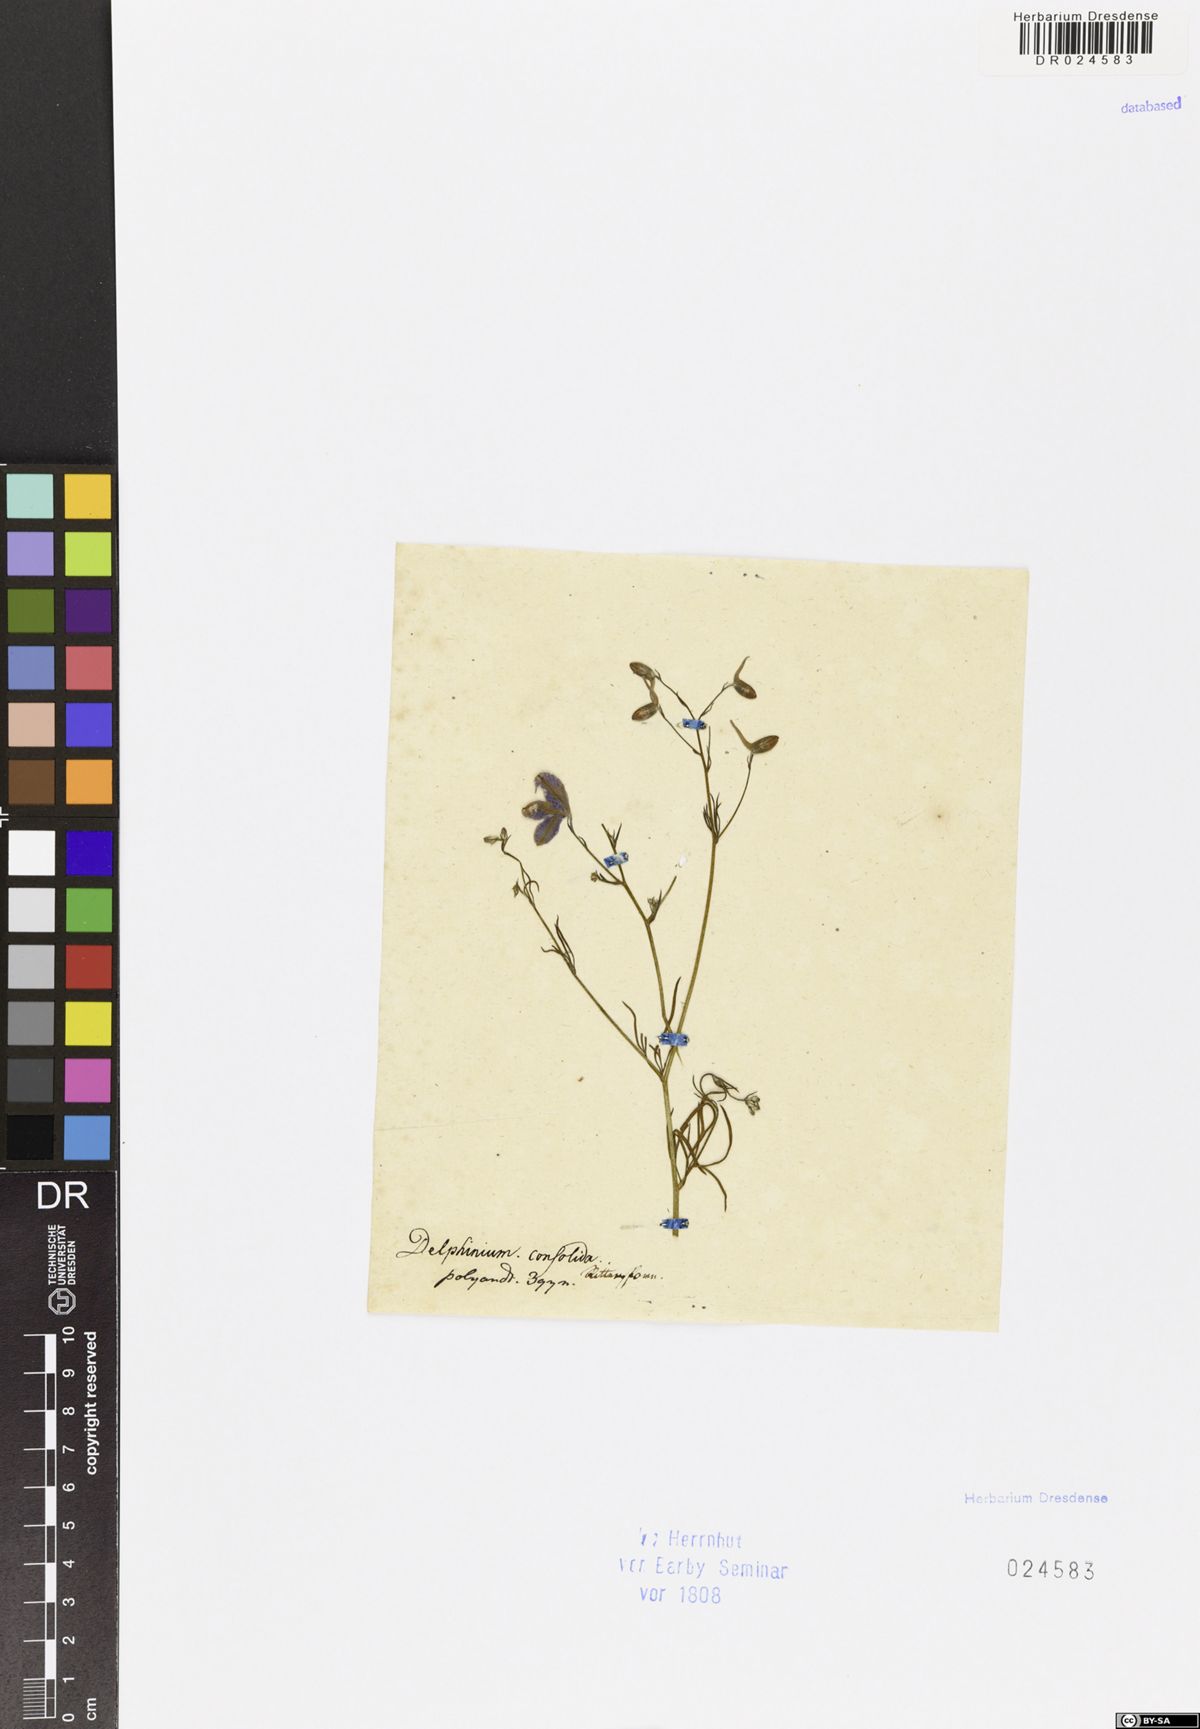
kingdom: Plantae
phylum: Tracheophyta
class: Magnoliopsida
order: Ranunculales
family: Ranunculaceae
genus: Delphinium
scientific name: Delphinium consolida
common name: Branching larkspur
